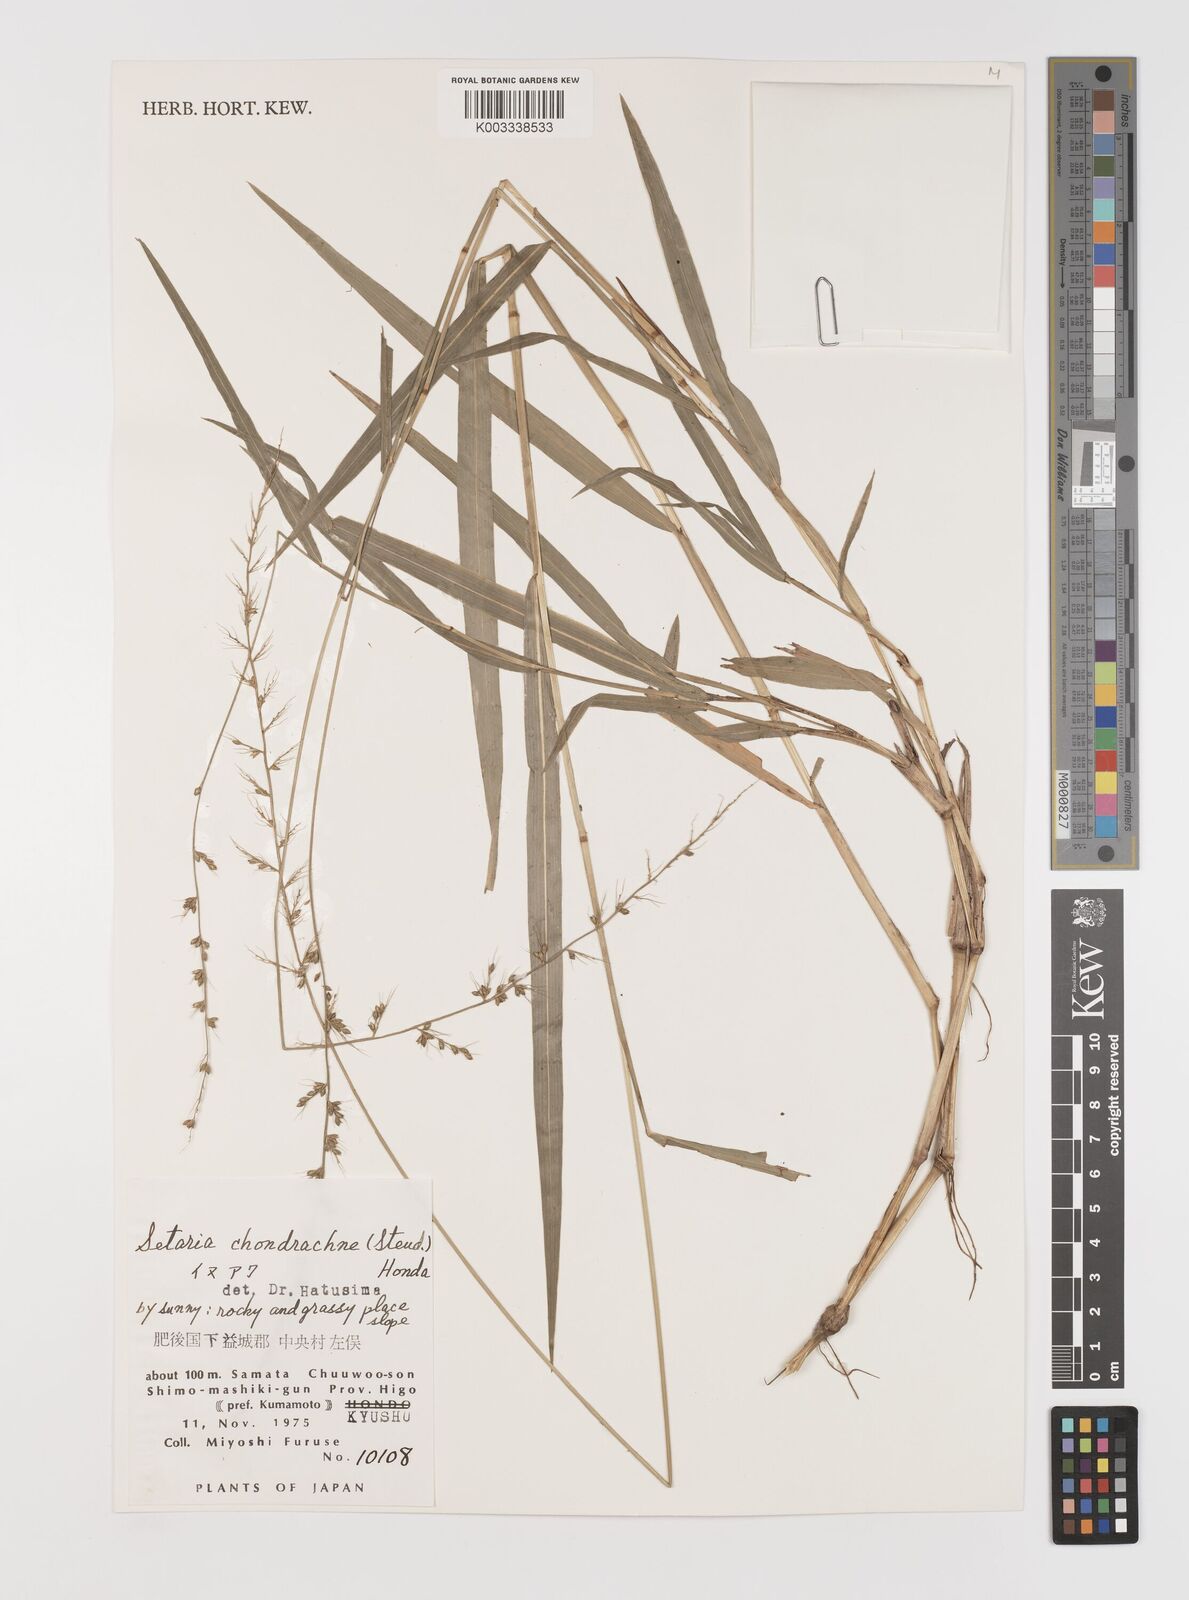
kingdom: Plantae
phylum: Tracheophyta
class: Liliopsida
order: Poales
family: Poaceae
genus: Setaria
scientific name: Setaria chondrachne
